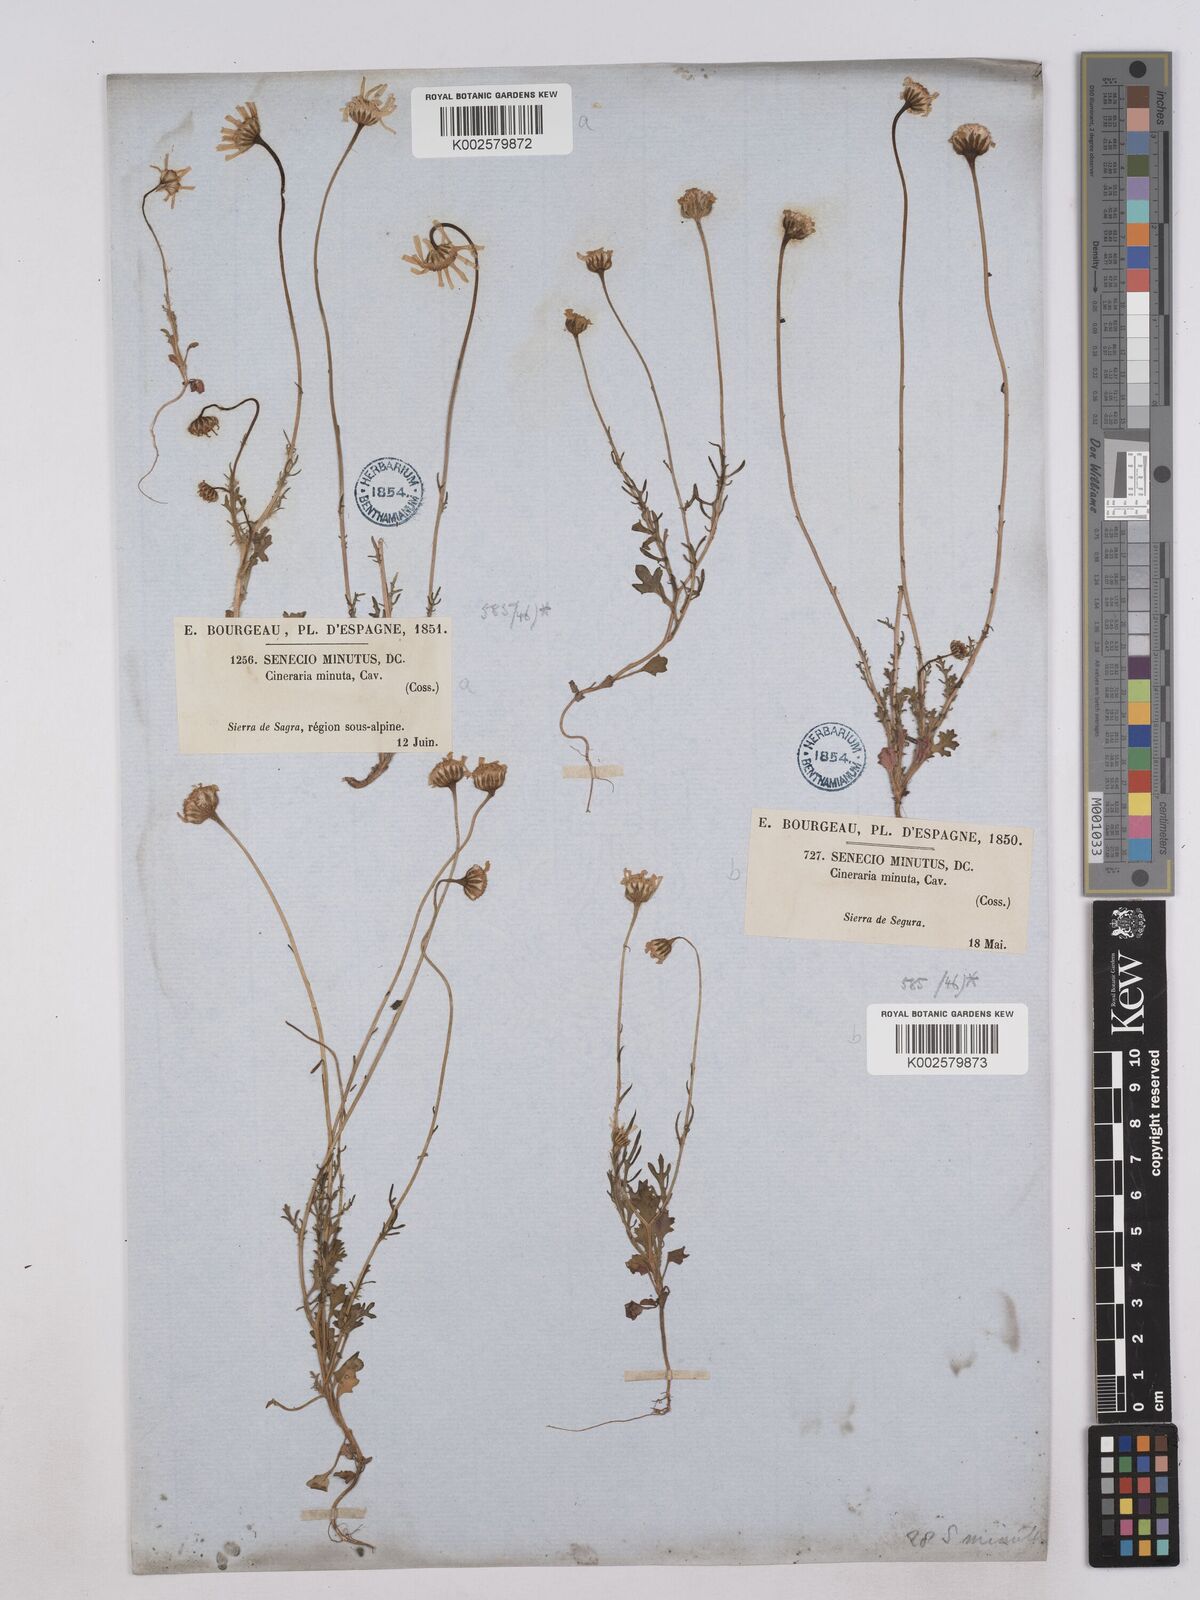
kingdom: Plantae
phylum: Tracheophyta
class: Magnoliopsida
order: Asterales
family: Asteraceae
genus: Jacobaea
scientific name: Jacobaea minuta
